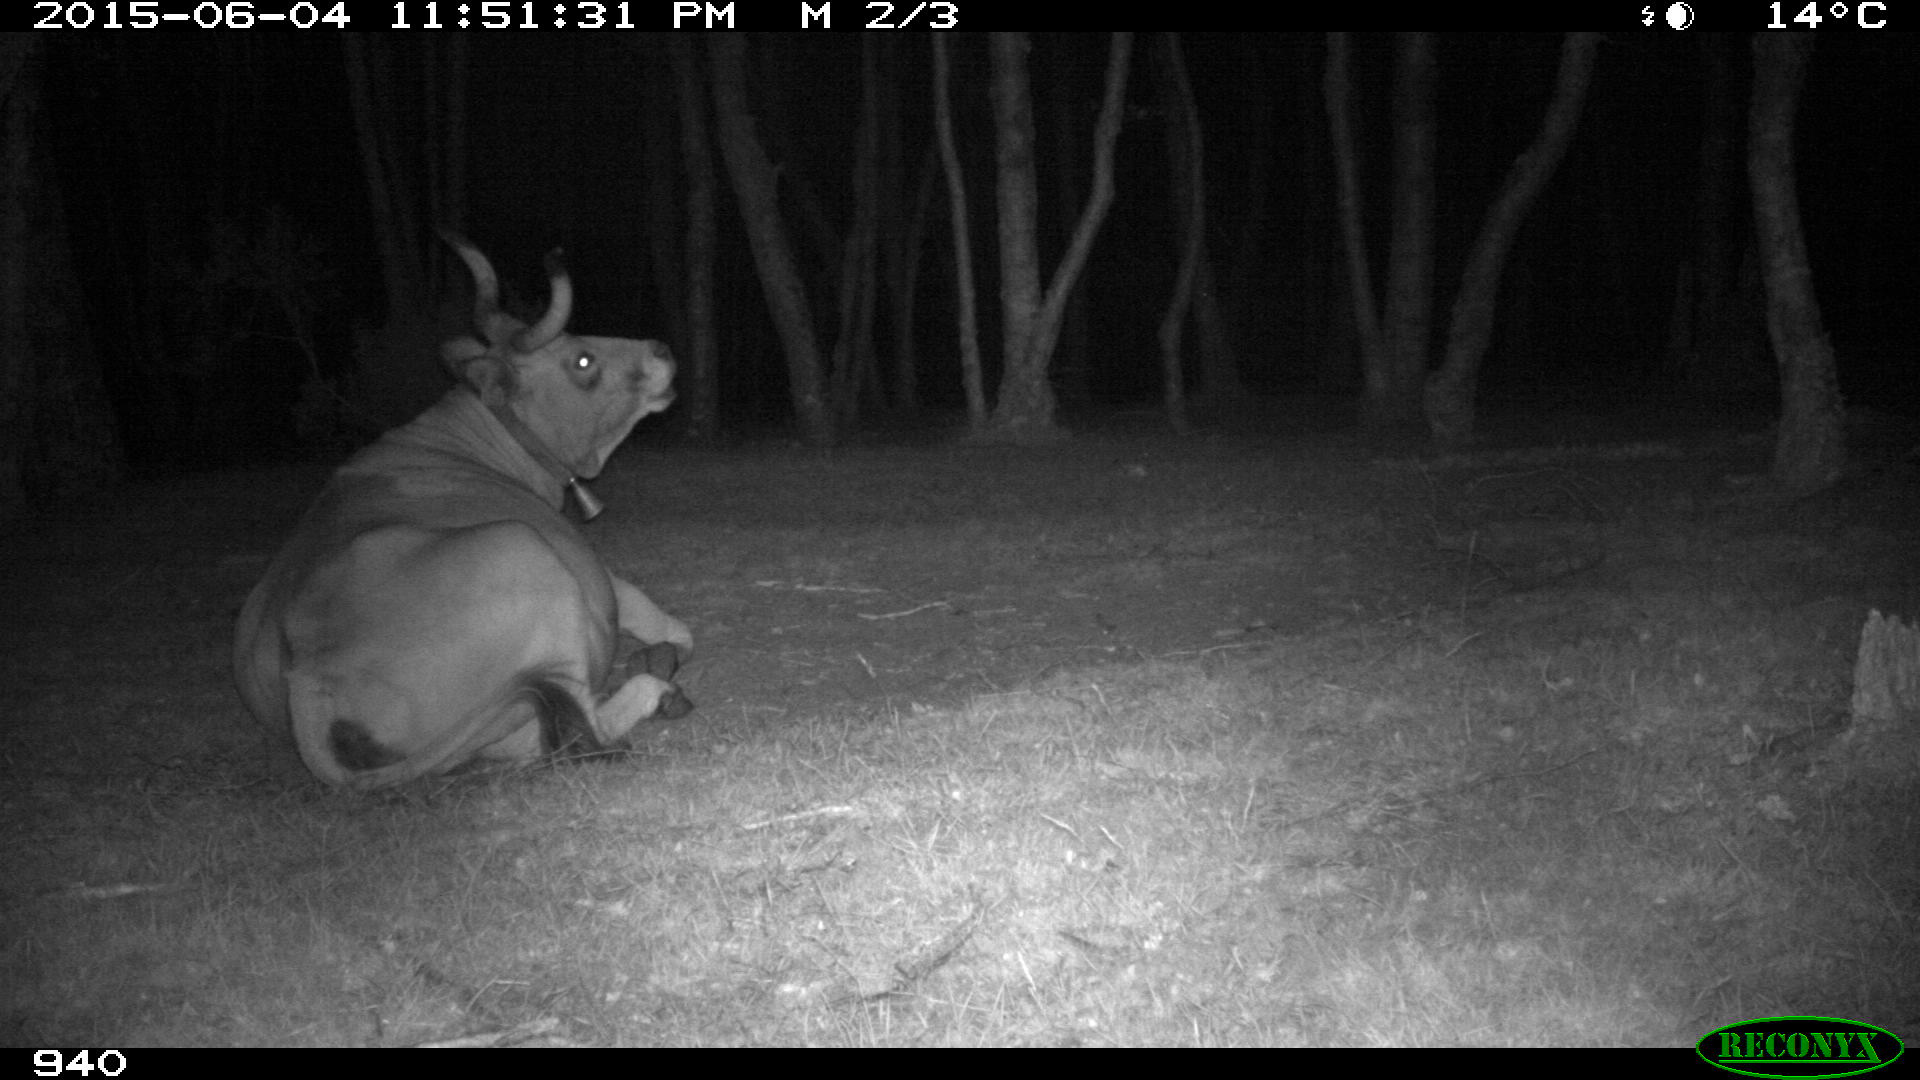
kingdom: Animalia
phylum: Chordata
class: Mammalia
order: Artiodactyla
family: Bovidae
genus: Bos
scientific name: Bos taurus
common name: Domesticated cattle
